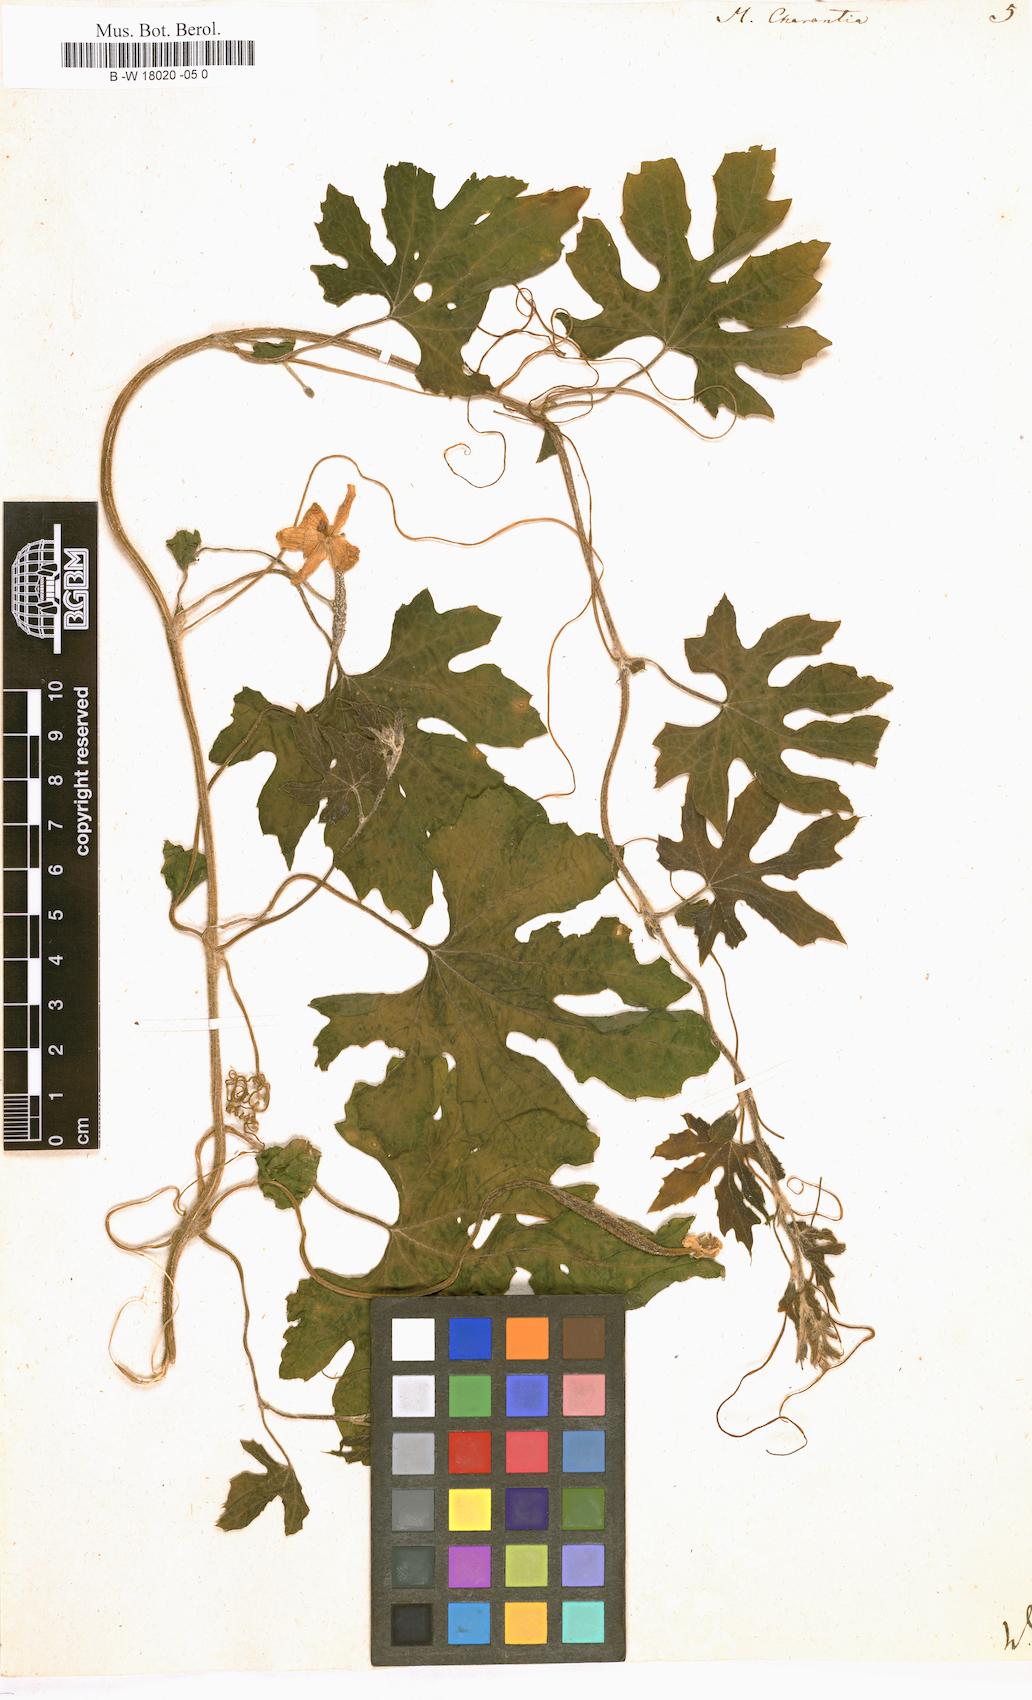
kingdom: Plantae
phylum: Tracheophyta
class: Magnoliopsida
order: Cucurbitales
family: Cucurbitaceae
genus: Momordica
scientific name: Momordica charantia
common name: Balsampear
